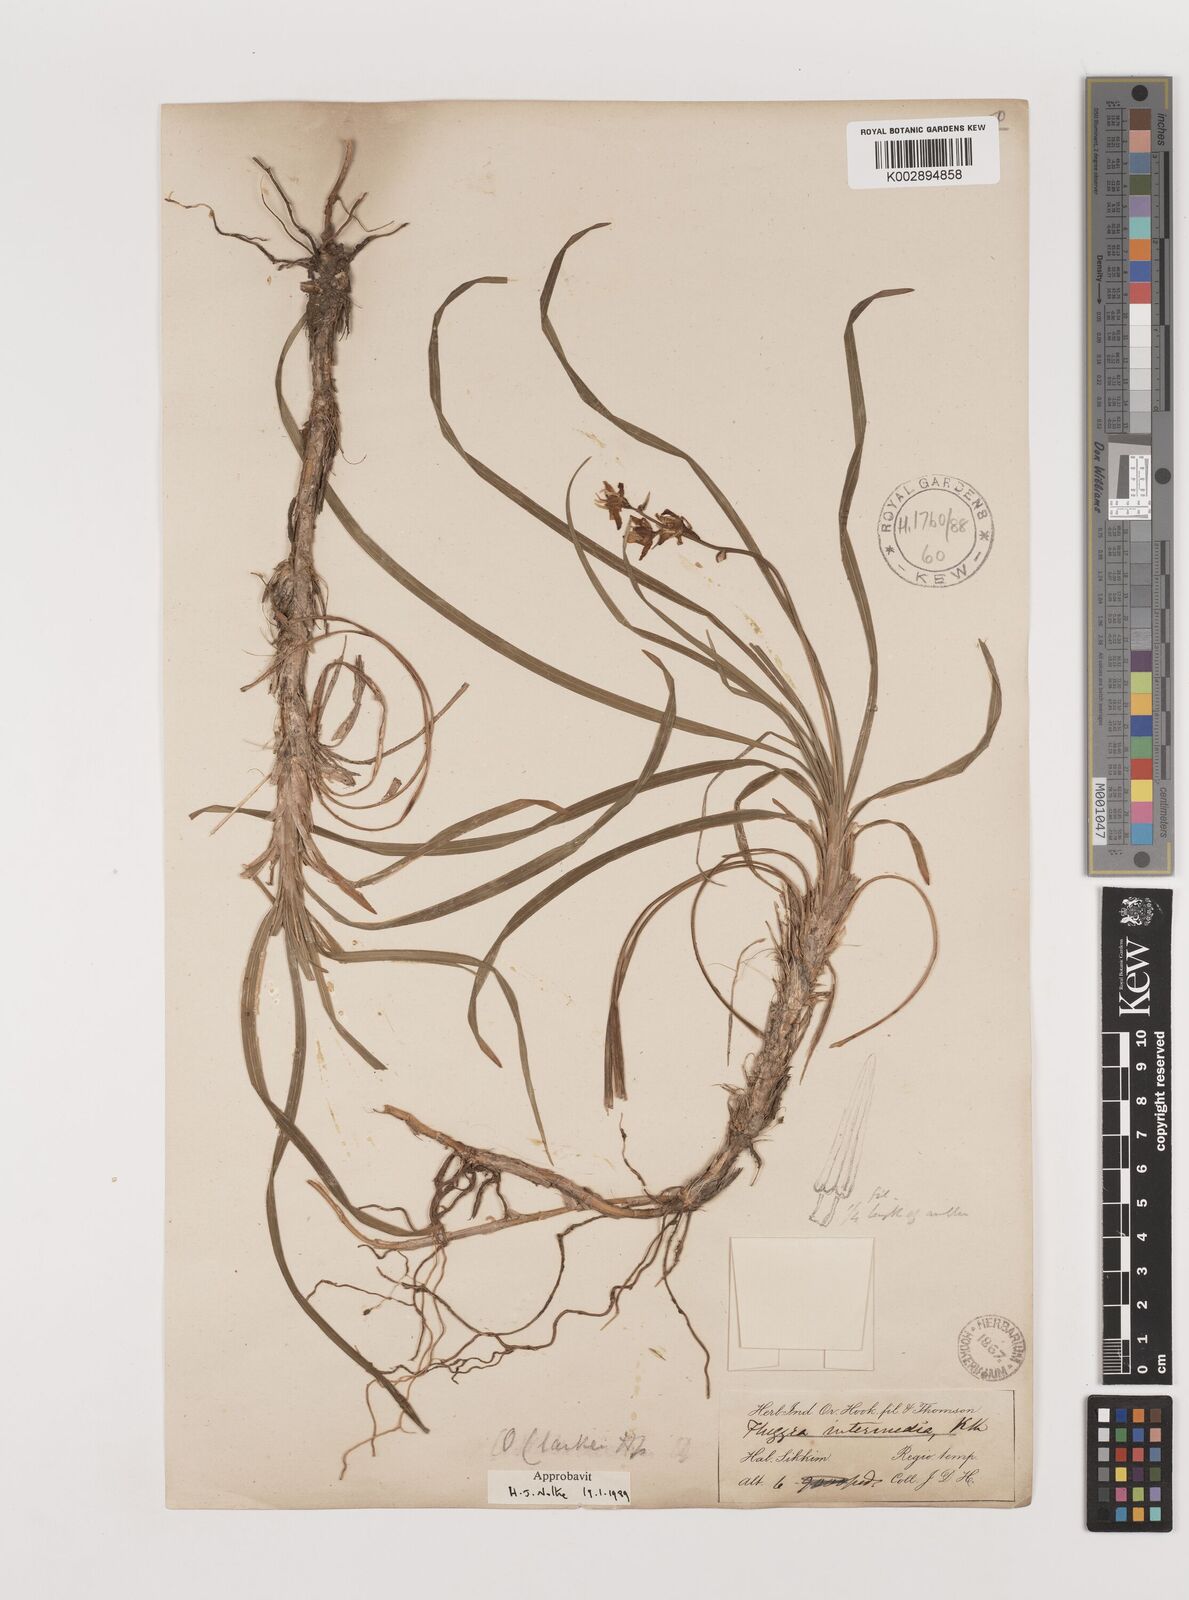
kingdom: Plantae
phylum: Tracheophyta
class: Liliopsida
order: Asparagales
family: Asparagaceae
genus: Ophiopogon
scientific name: Ophiopogon clarkei
